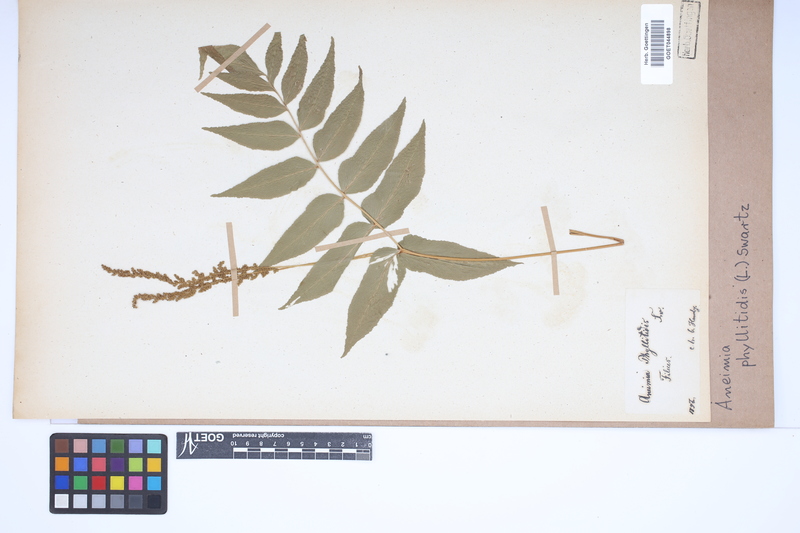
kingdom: Plantae
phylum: Tracheophyta
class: Polypodiopsida
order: Schizaeales
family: Anemiaceae
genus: Anemia
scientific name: Anemia phyllitidis
